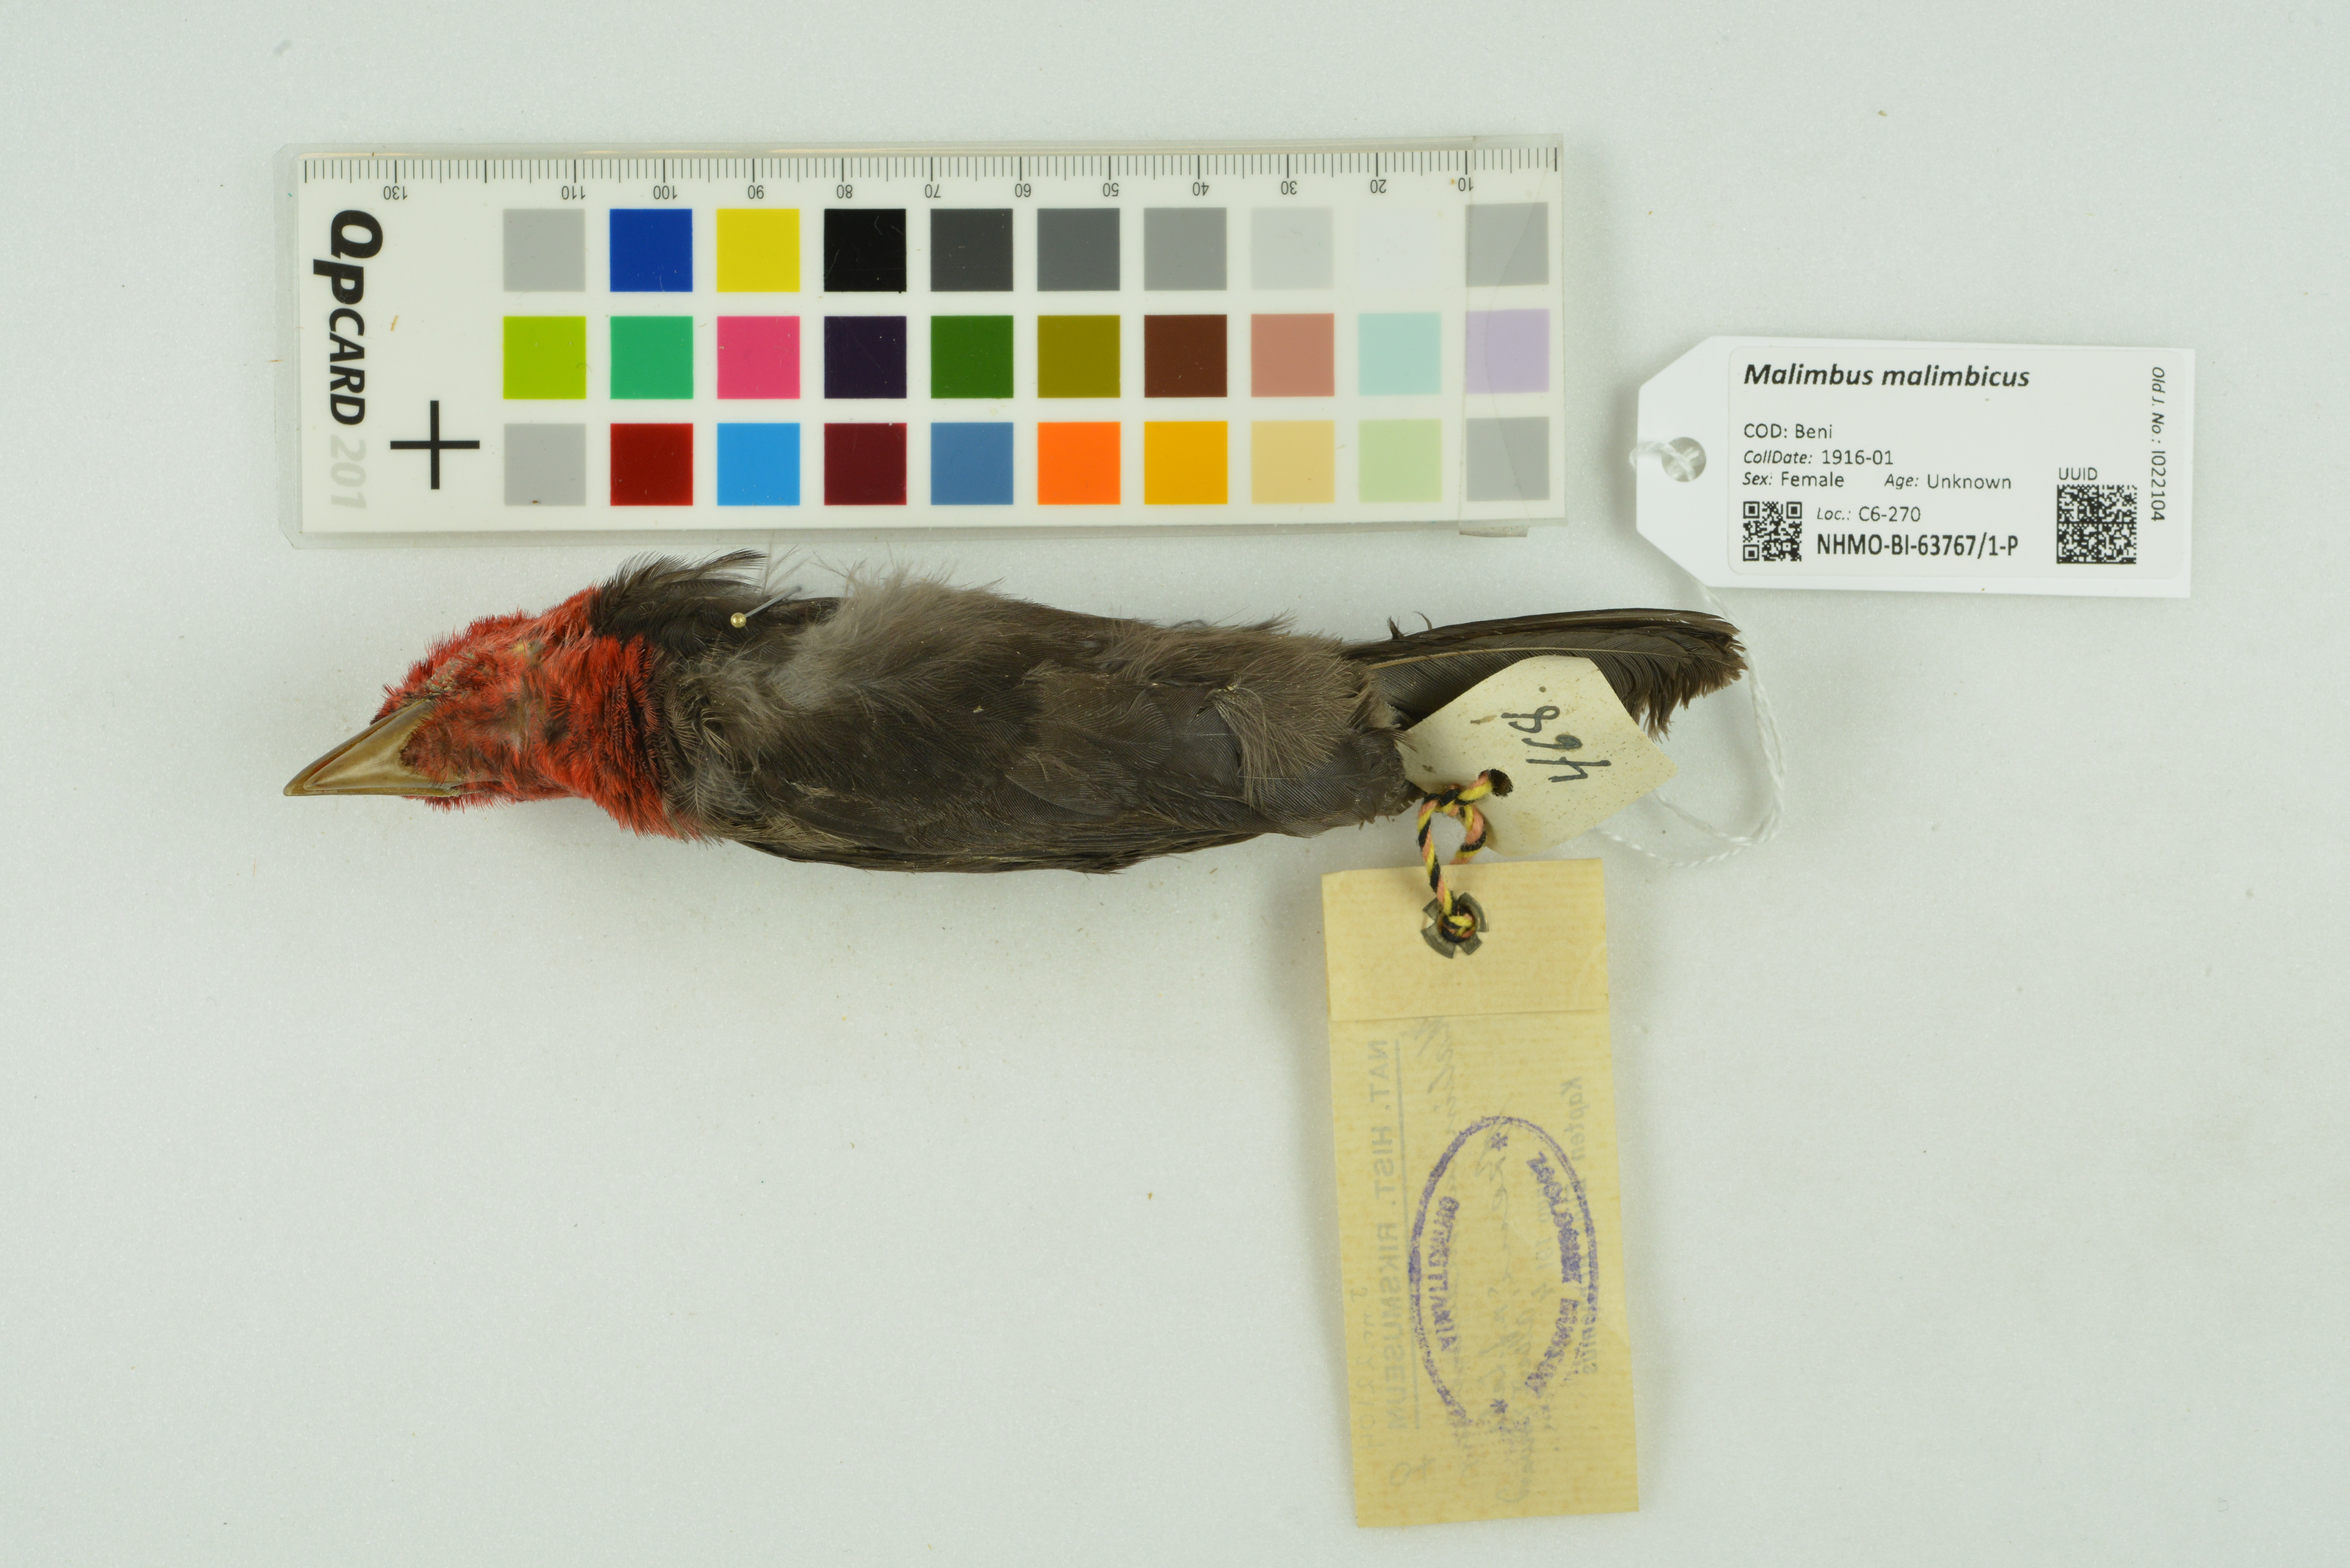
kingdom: Animalia
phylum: Chordata
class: Aves
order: Passeriformes
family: Ploceidae
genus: Malimbus
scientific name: Malimbus malimbicus
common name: Crested malimbe
